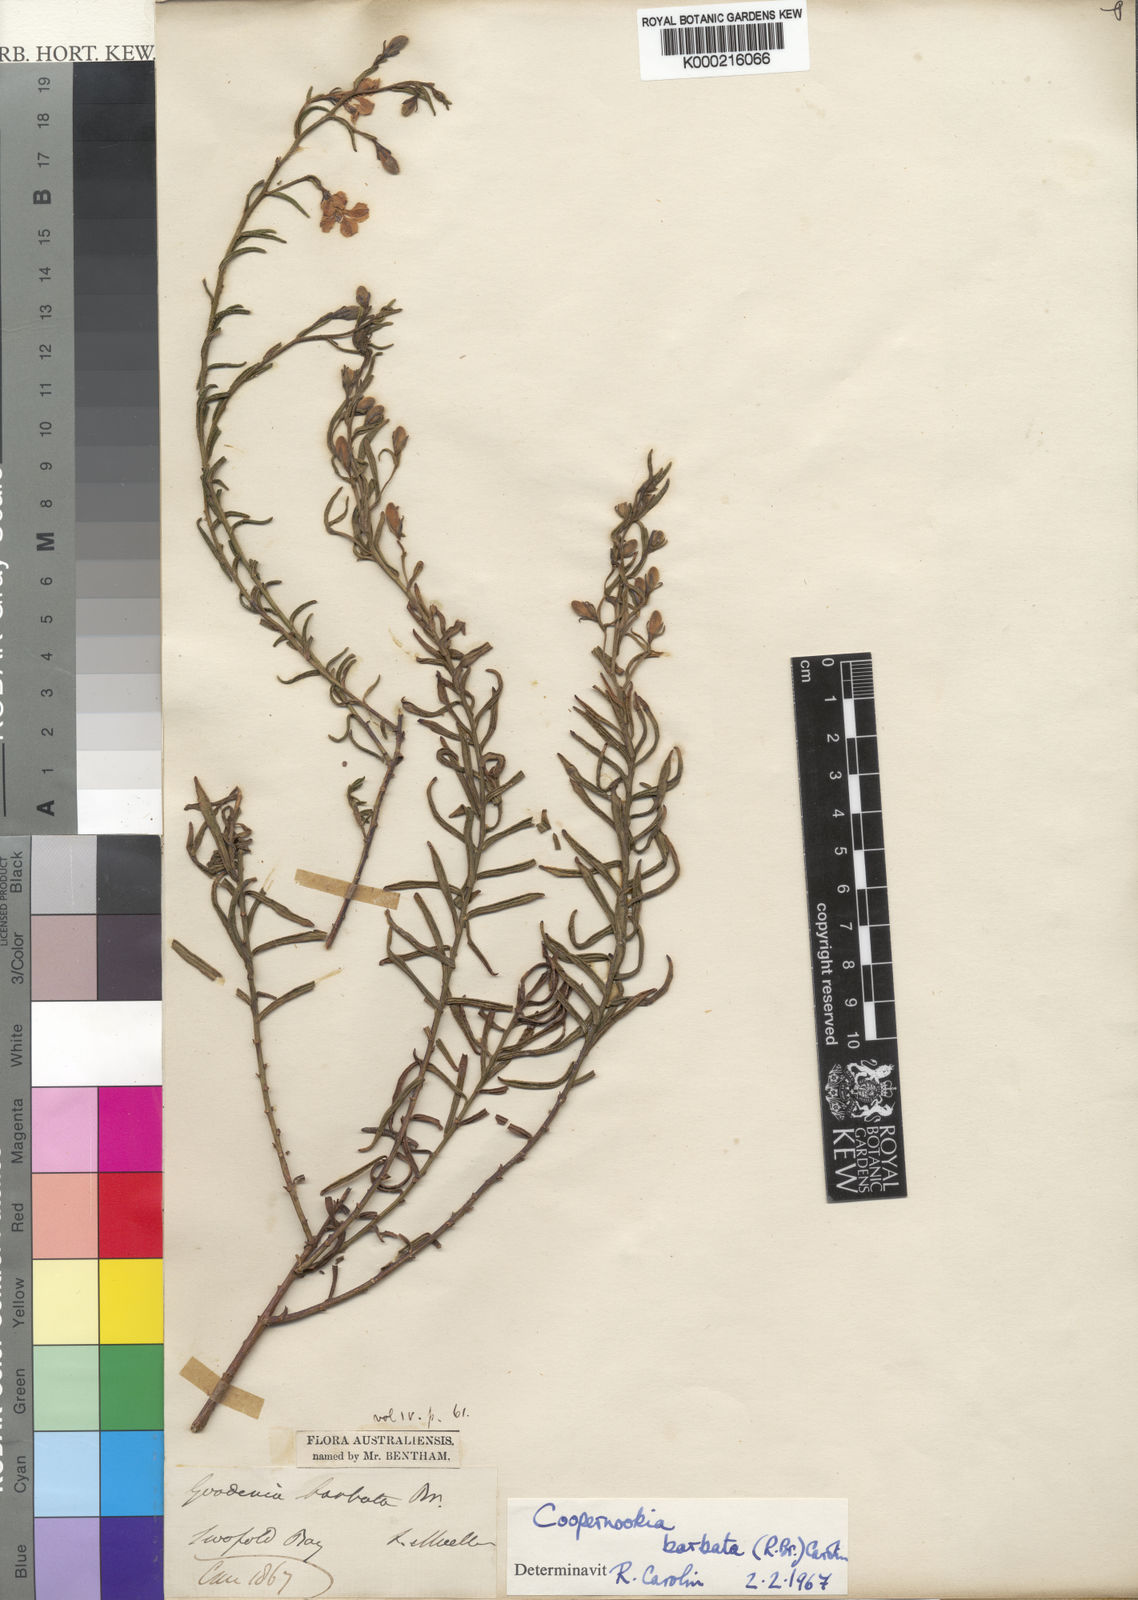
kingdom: Plantae
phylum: Tracheophyta
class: Magnoliopsida
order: Asterales
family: Goodeniaceae
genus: Goodenia
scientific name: Goodenia barbata
